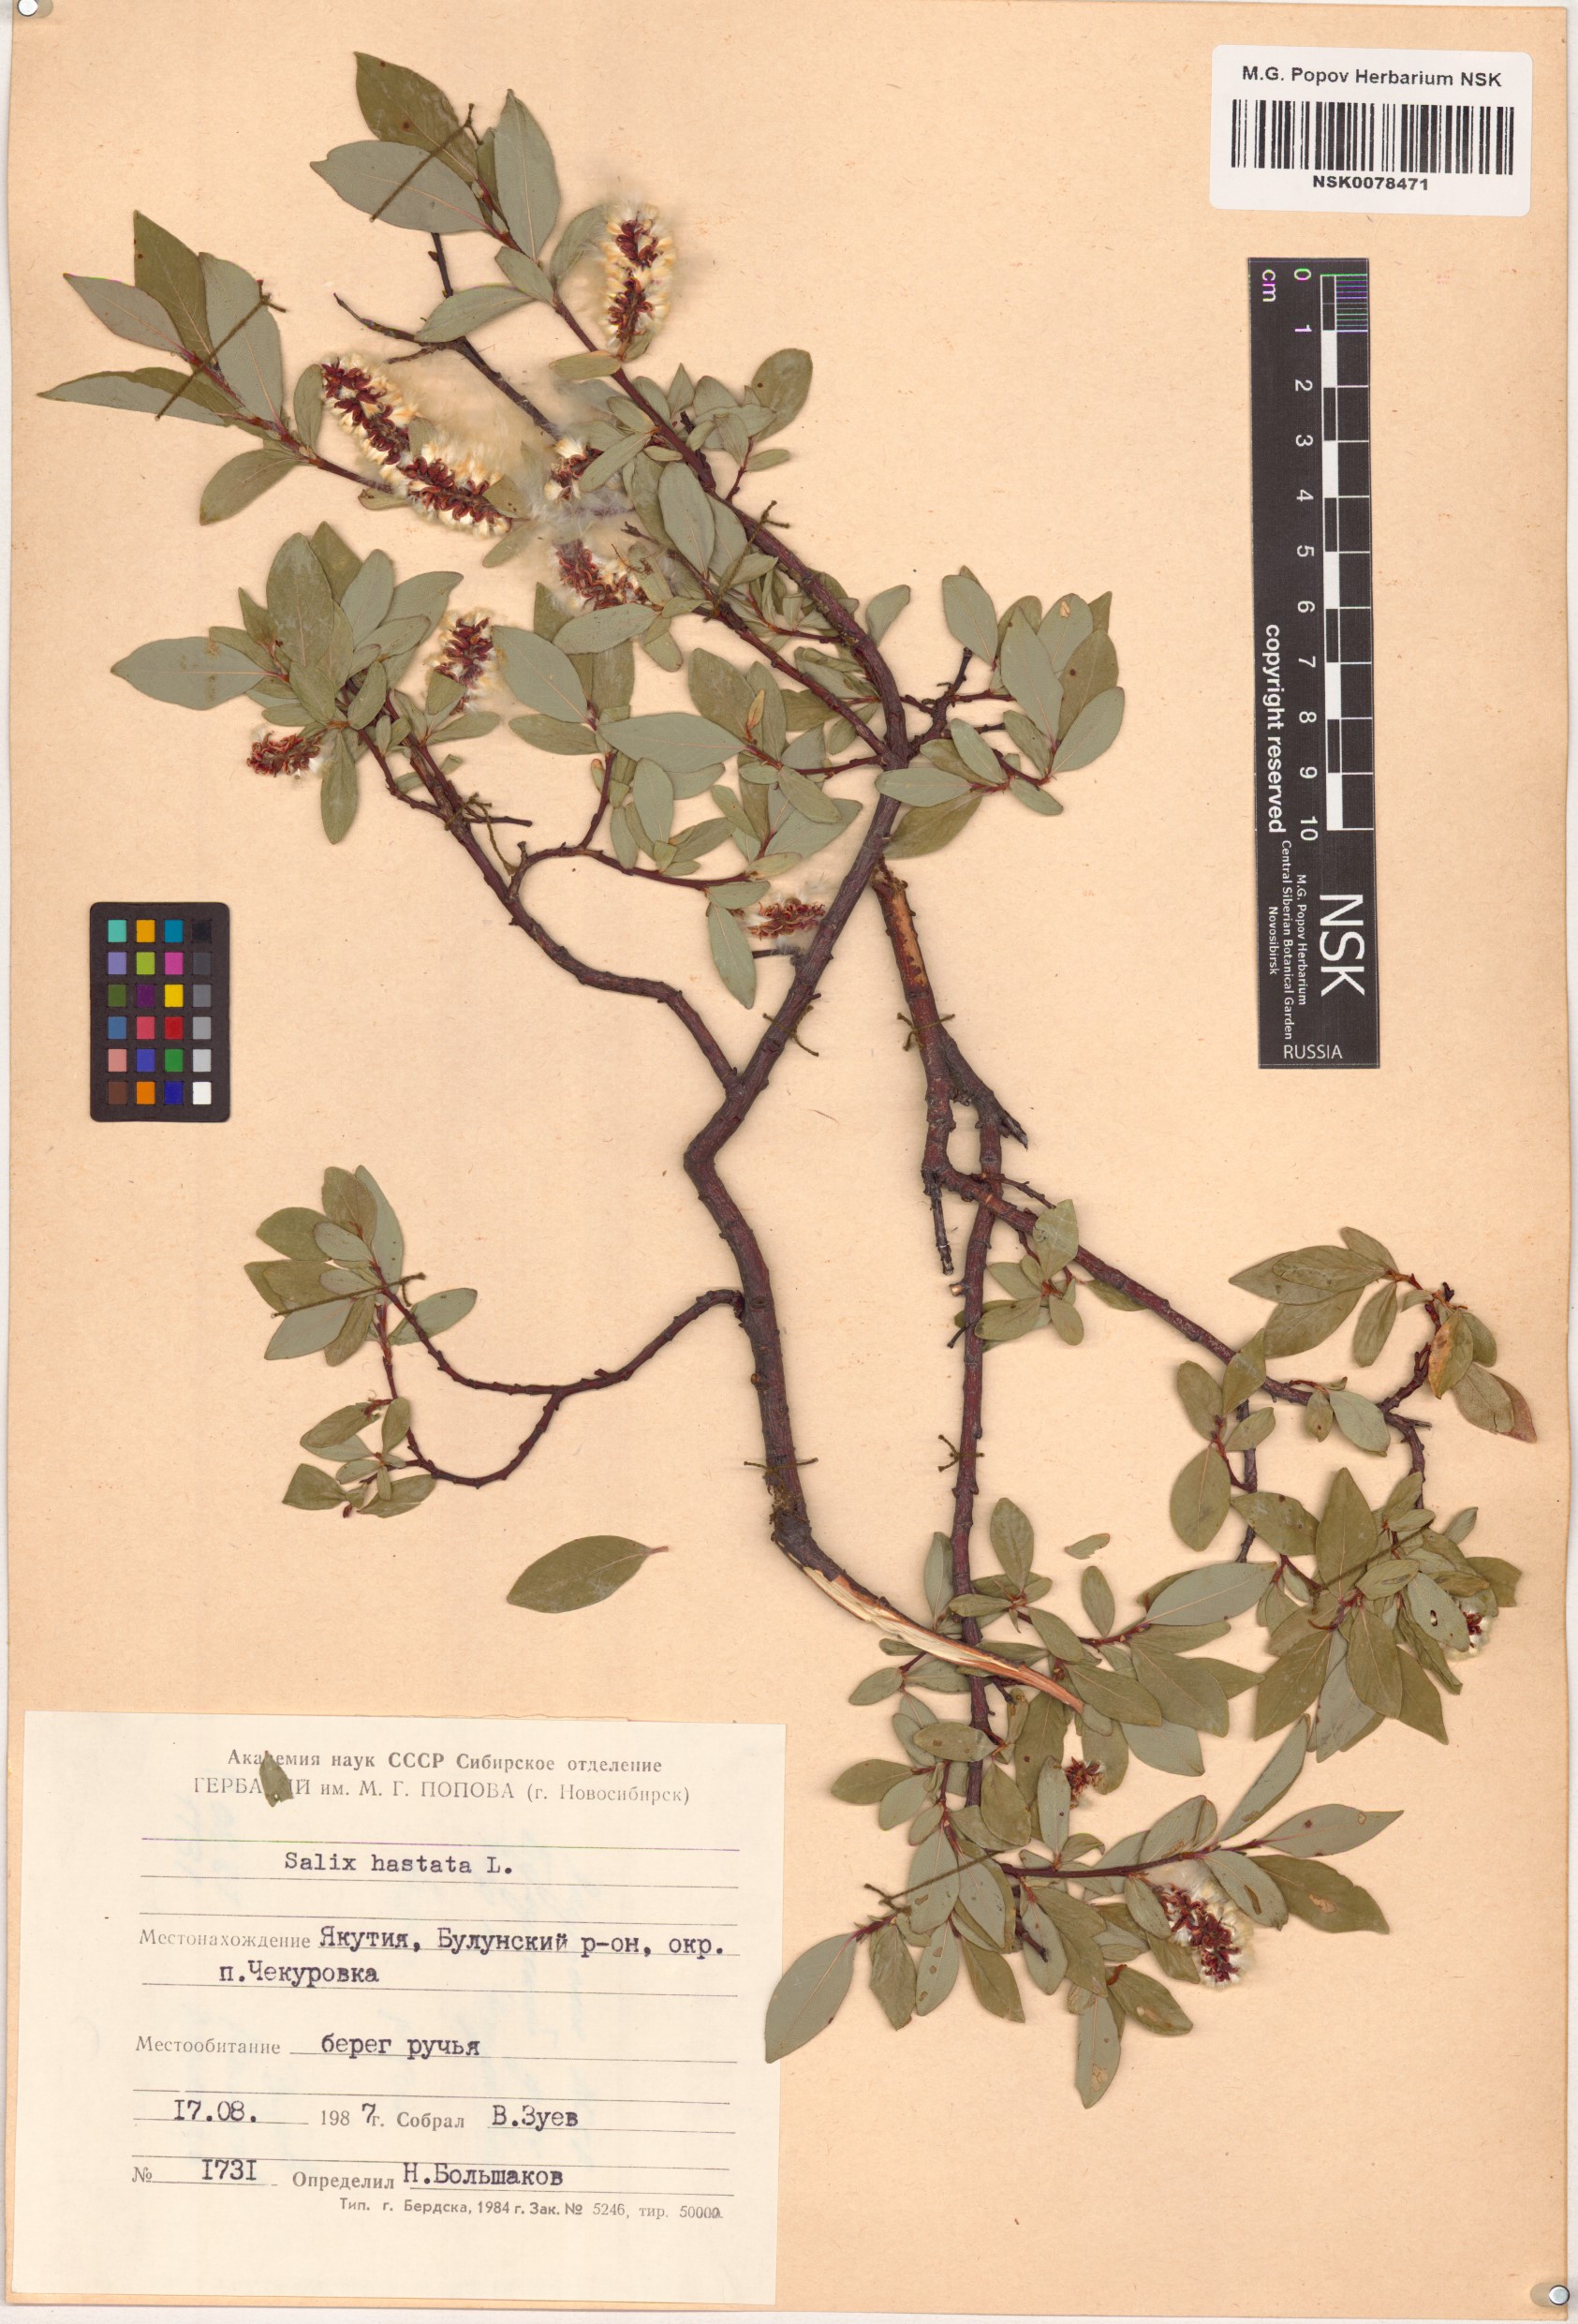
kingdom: Plantae
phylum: Tracheophyta
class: Magnoliopsida
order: Malpighiales
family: Salicaceae
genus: Salix
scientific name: Salix hastata
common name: Halberd willow
